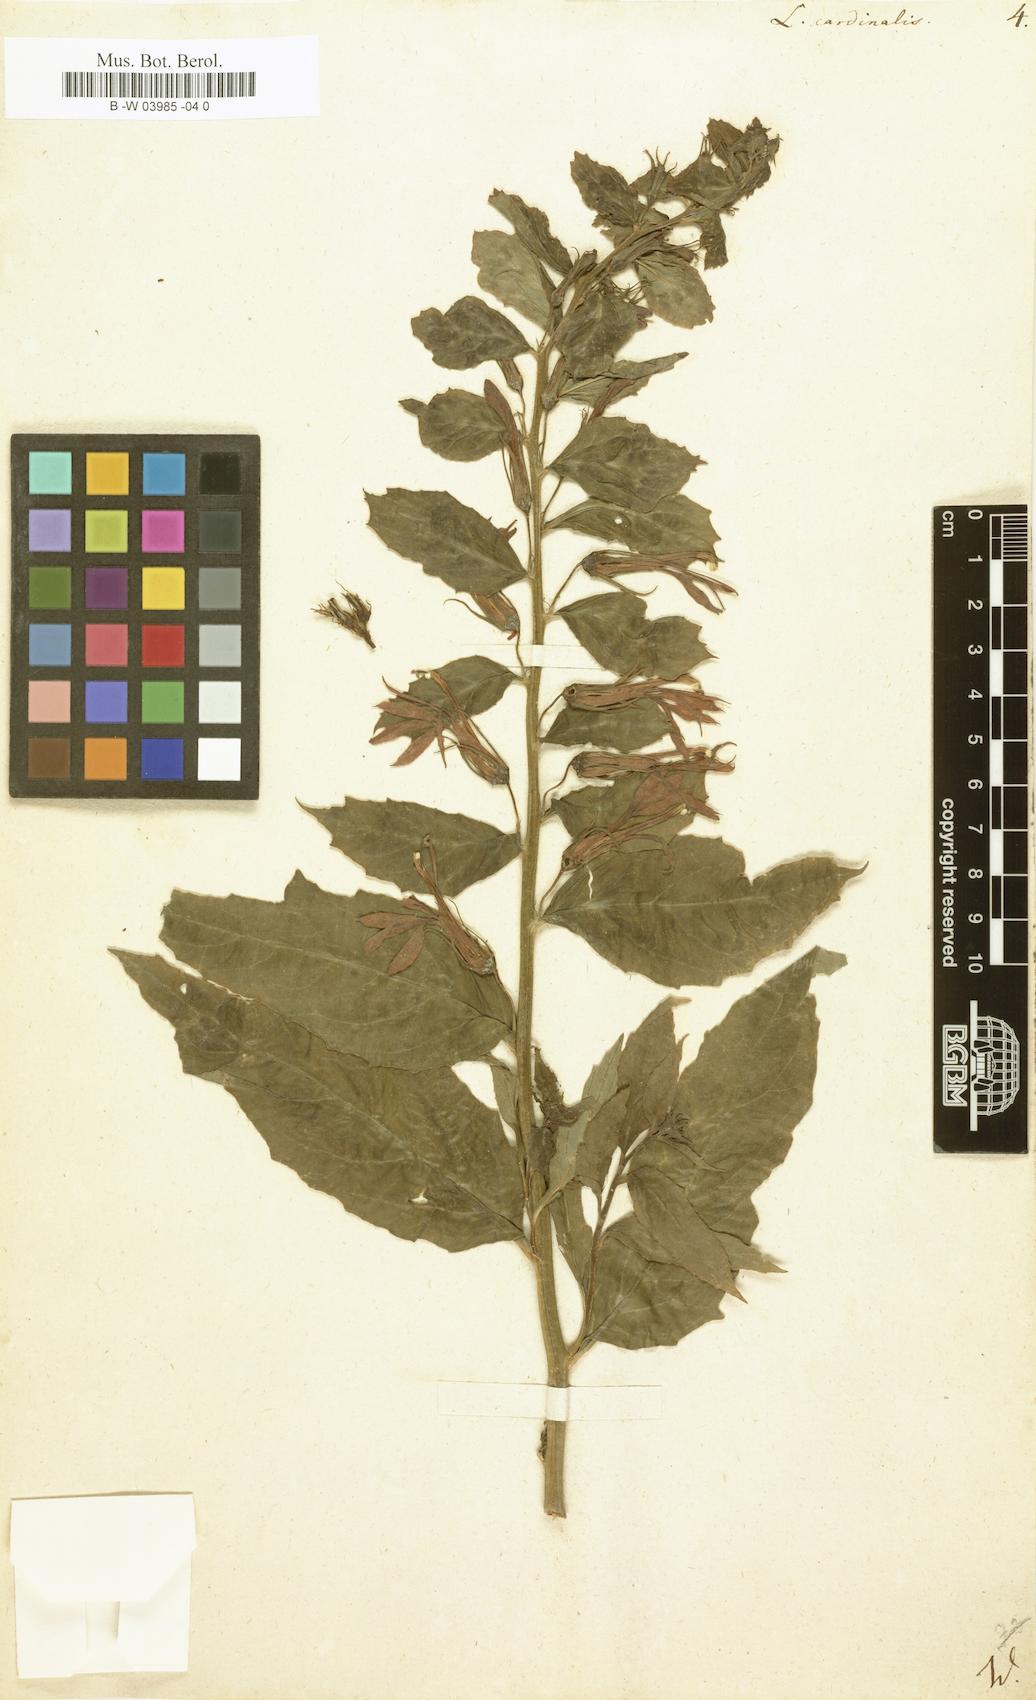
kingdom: Plantae
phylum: Tracheophyta
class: Magnoliopsida
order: Asterales
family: Campanulaceae
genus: Lobelia
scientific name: Lobelia cardinalis
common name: Cardinal flower
